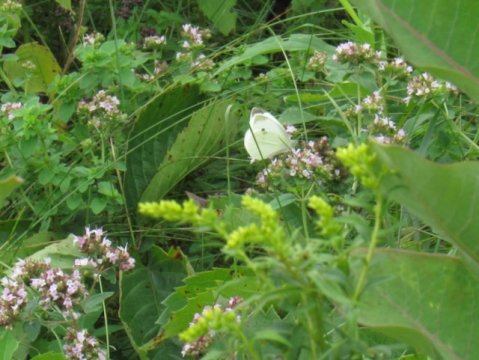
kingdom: Animalia
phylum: Arthropoda
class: Insecta
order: Lepidoptera
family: Pieridae
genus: Pieris
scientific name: Pieris rapae
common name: Cabbage White
